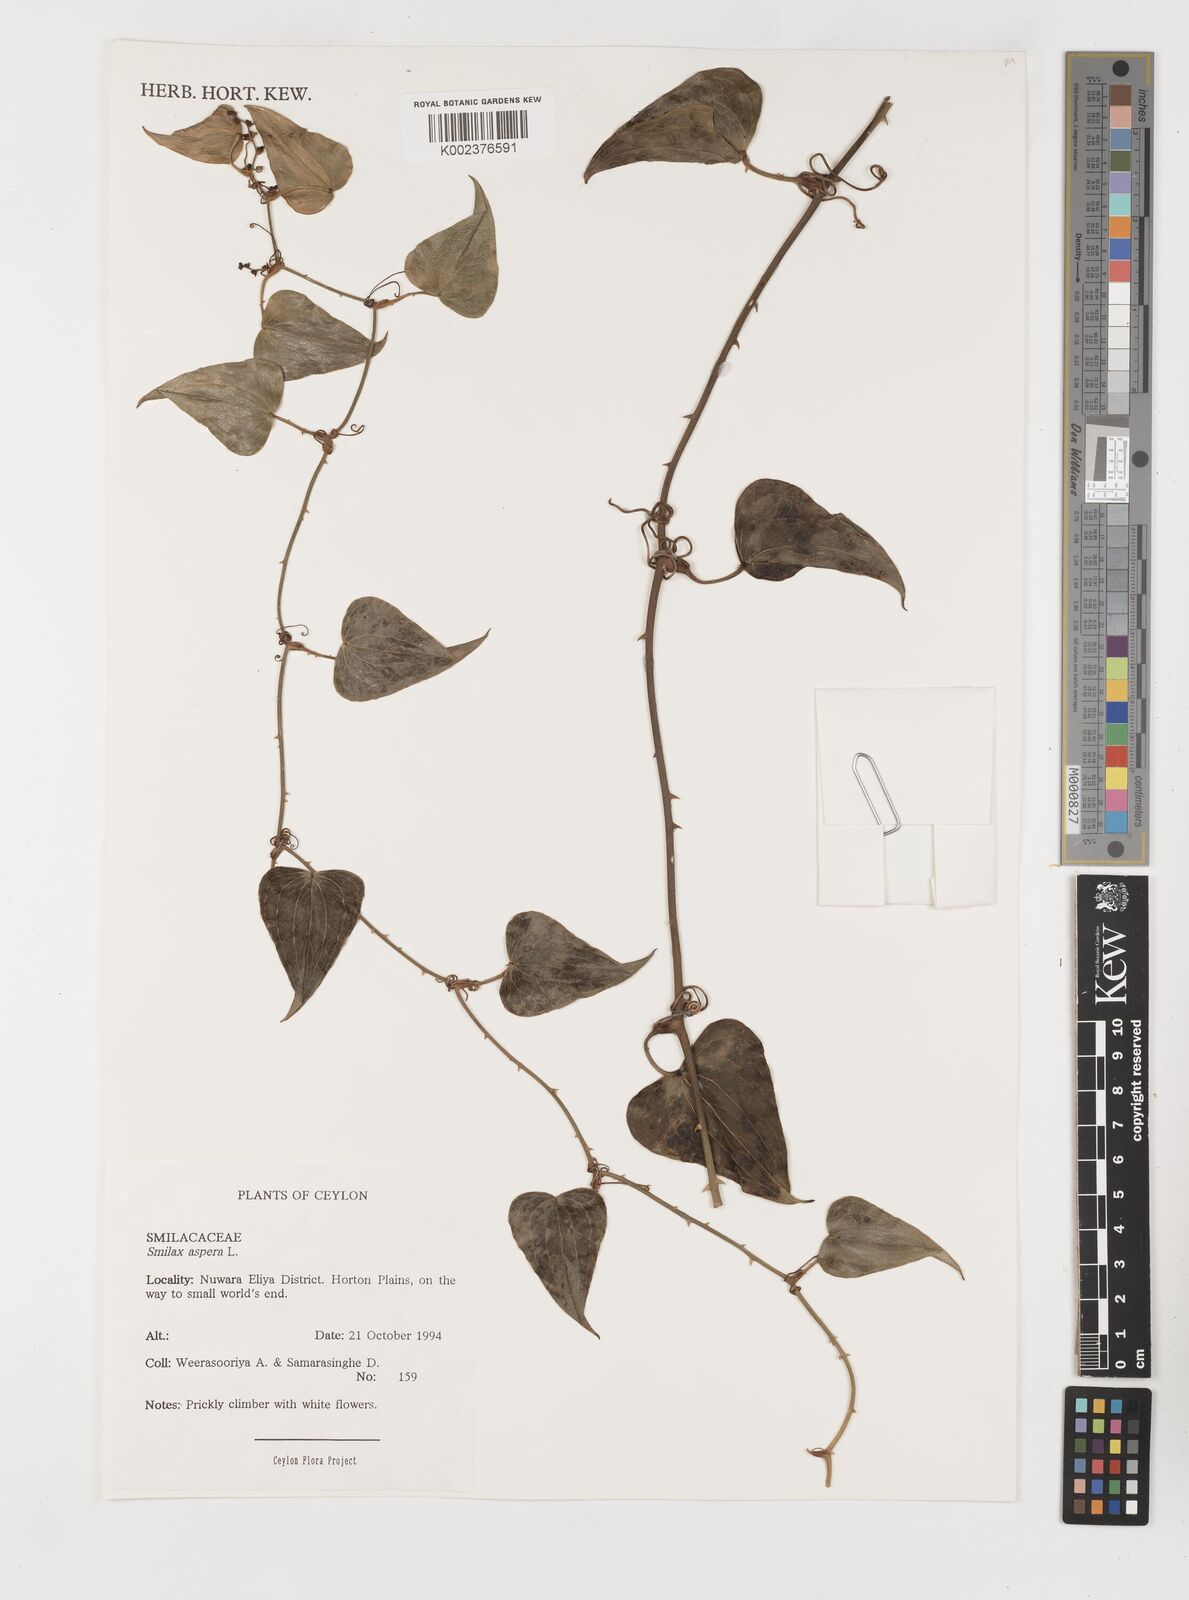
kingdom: Plantae
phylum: Tracheophyta
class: Liliopsida
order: Liliales
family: Smilacaceae
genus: Smilax
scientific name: Smilax aspera
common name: Common smilax
